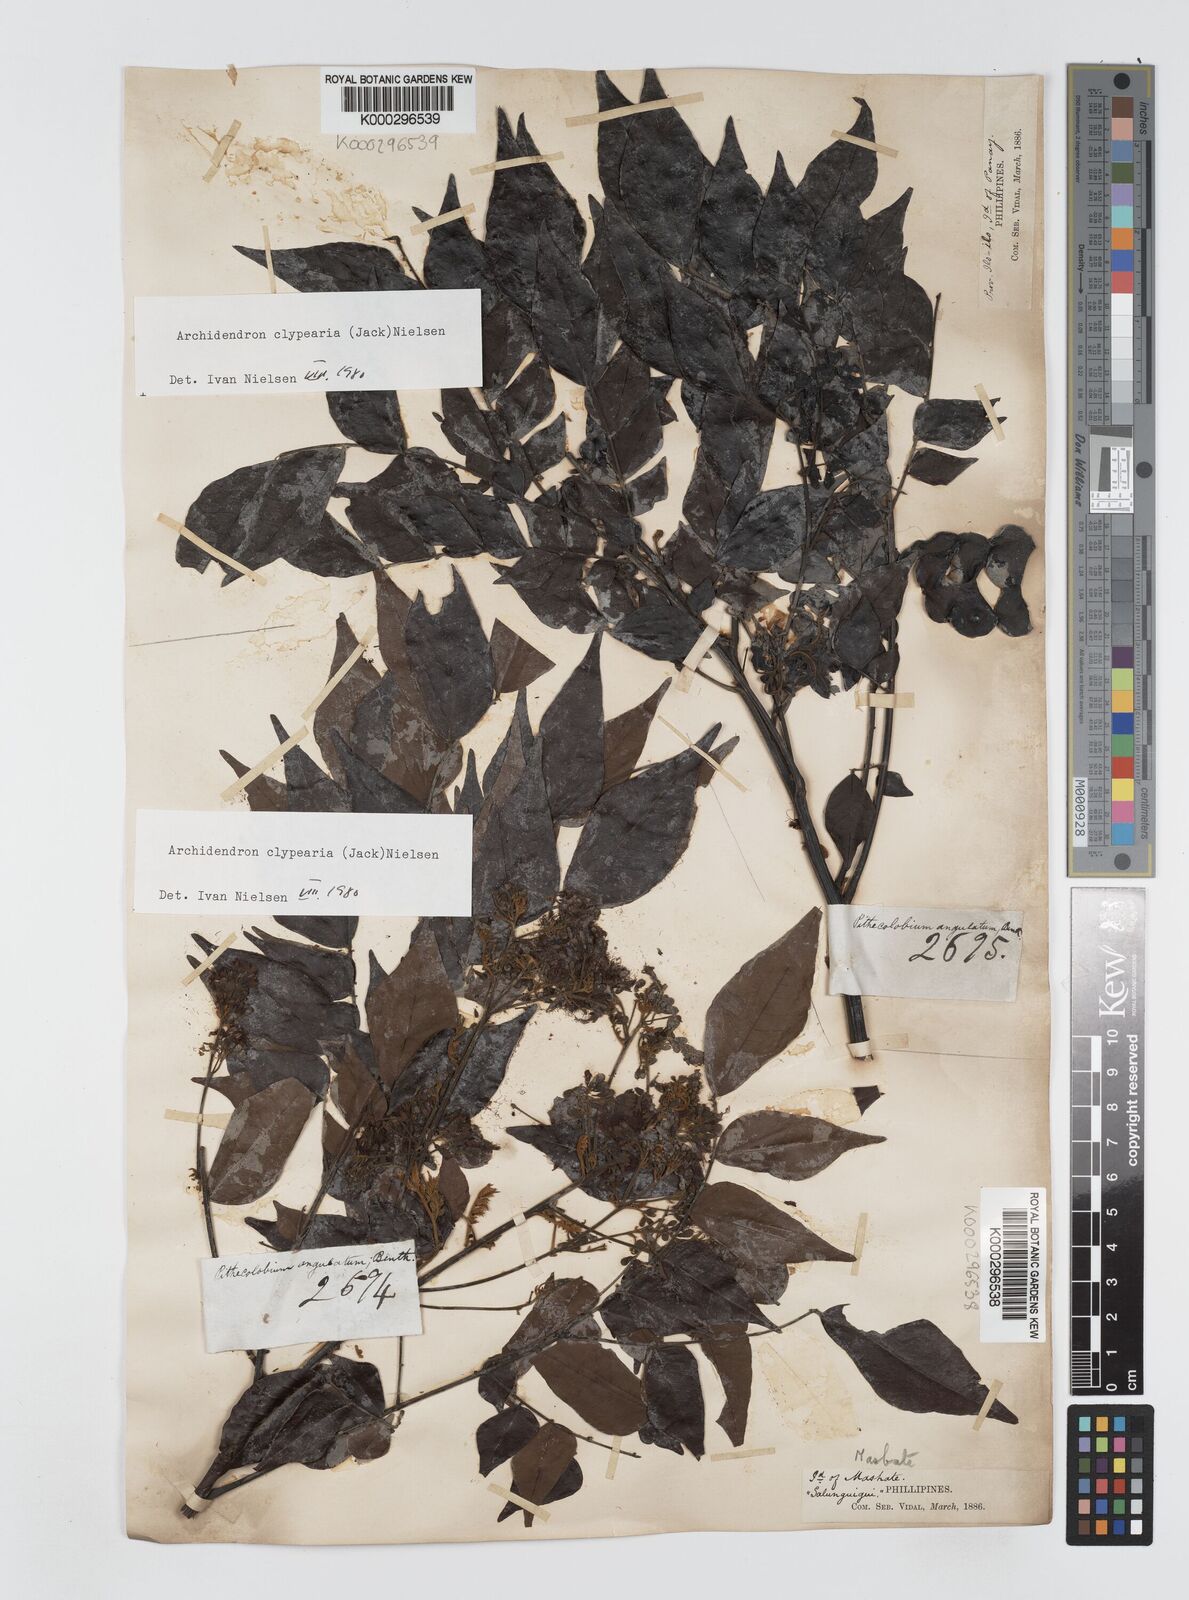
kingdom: Plantae
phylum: Tracheophyta
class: Magnoliopsida
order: Fabales
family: Fabaceae
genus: Archidendron
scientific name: Archidendron clypearia
